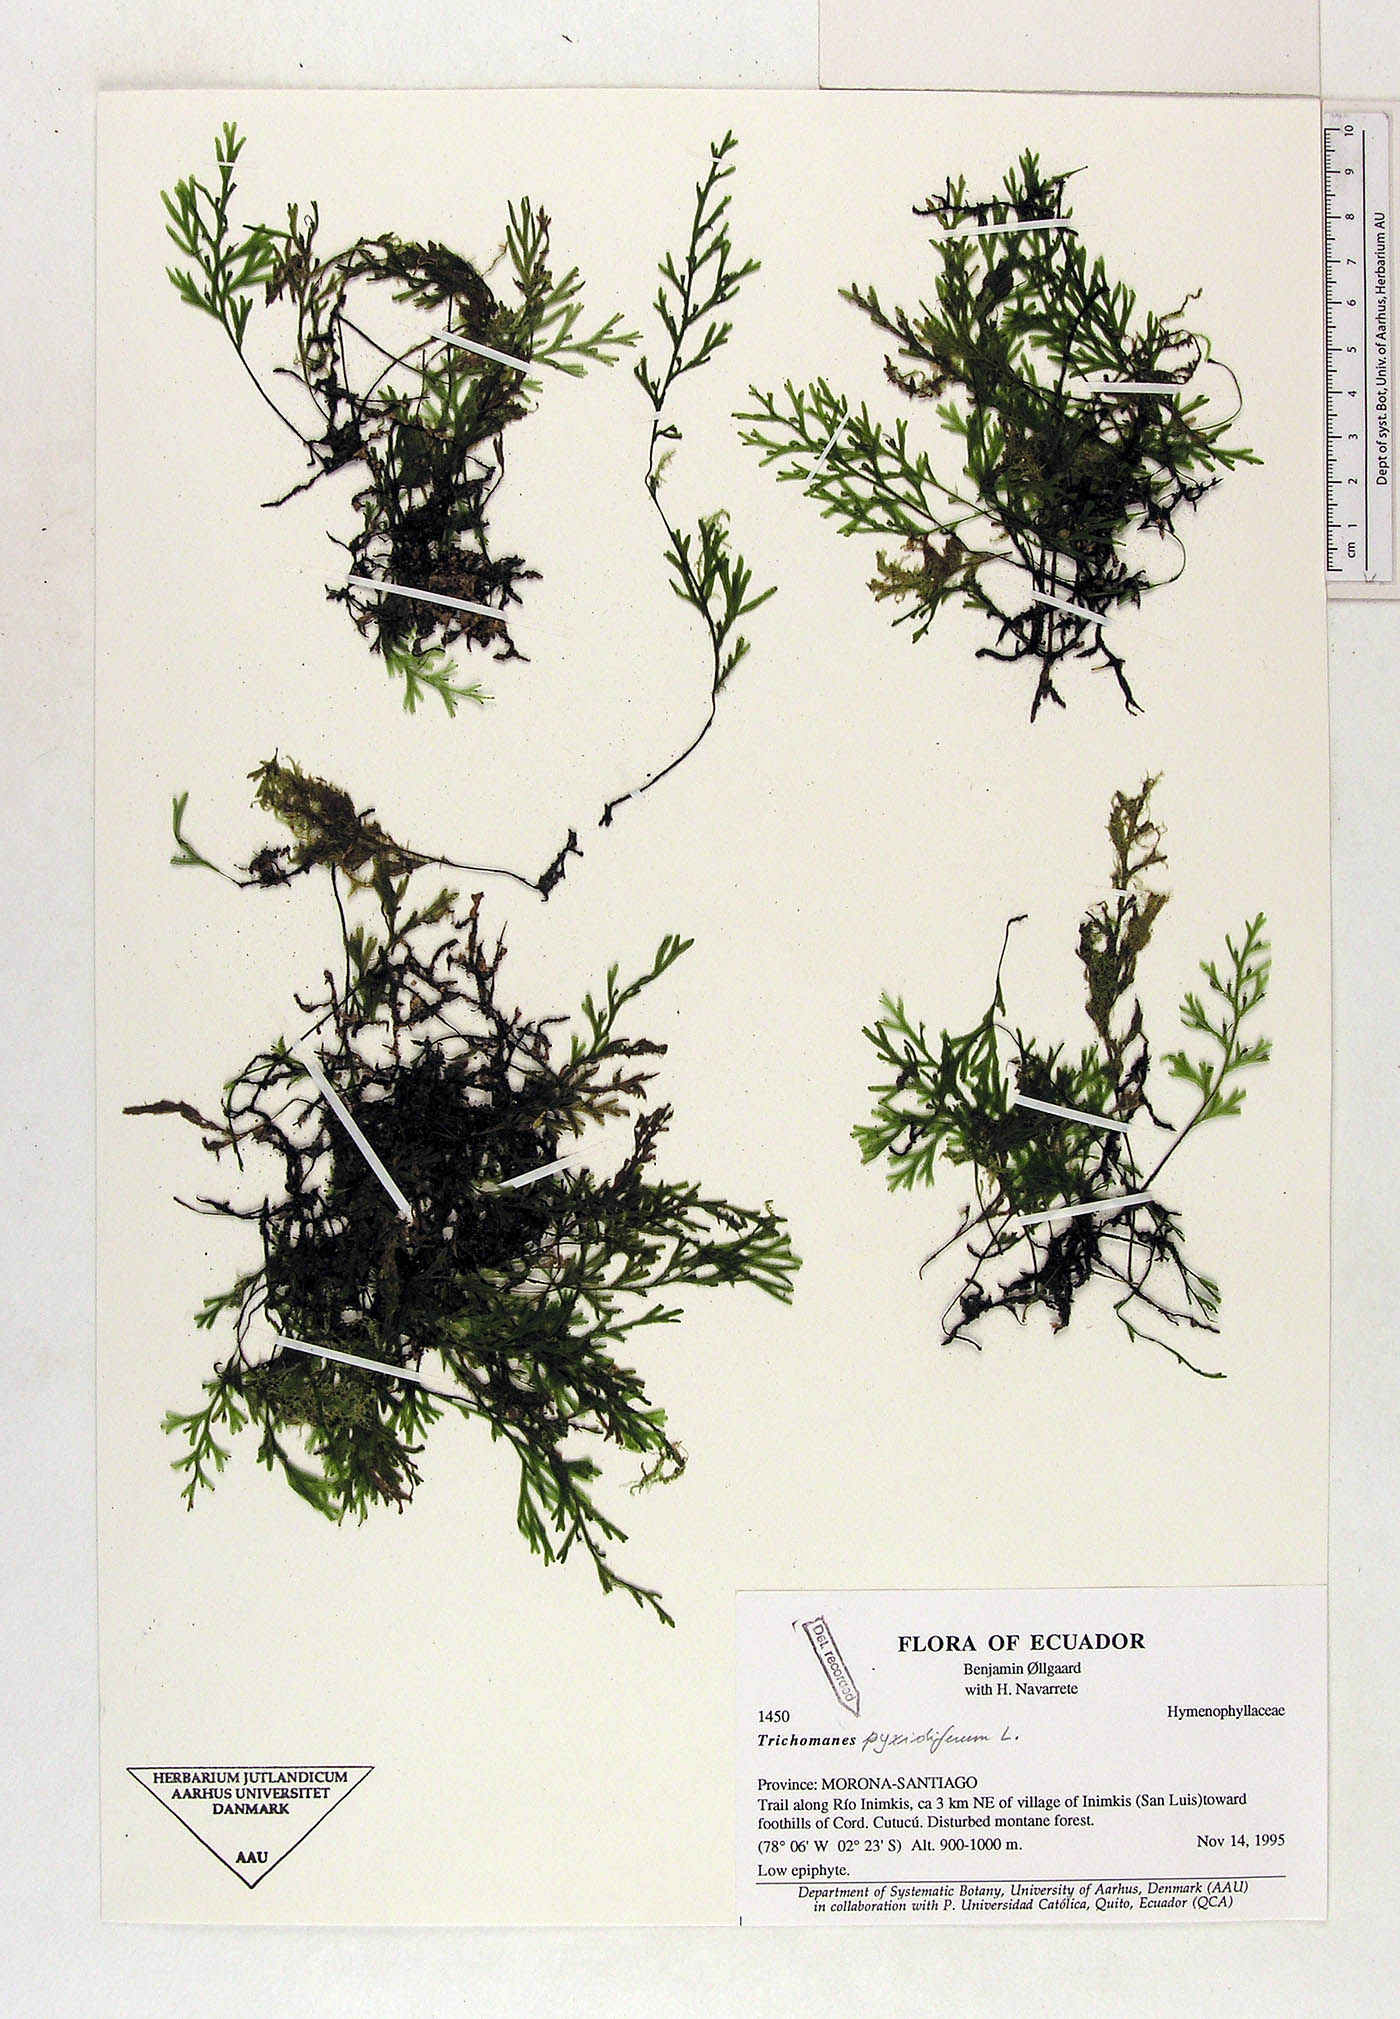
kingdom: Plantae
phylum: Tracheophyta
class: Polypodiopsida
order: Hymenophyllales
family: Hymenophyllaceae
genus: Polyphlebium
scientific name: Polyphlebium pyxidiferum
